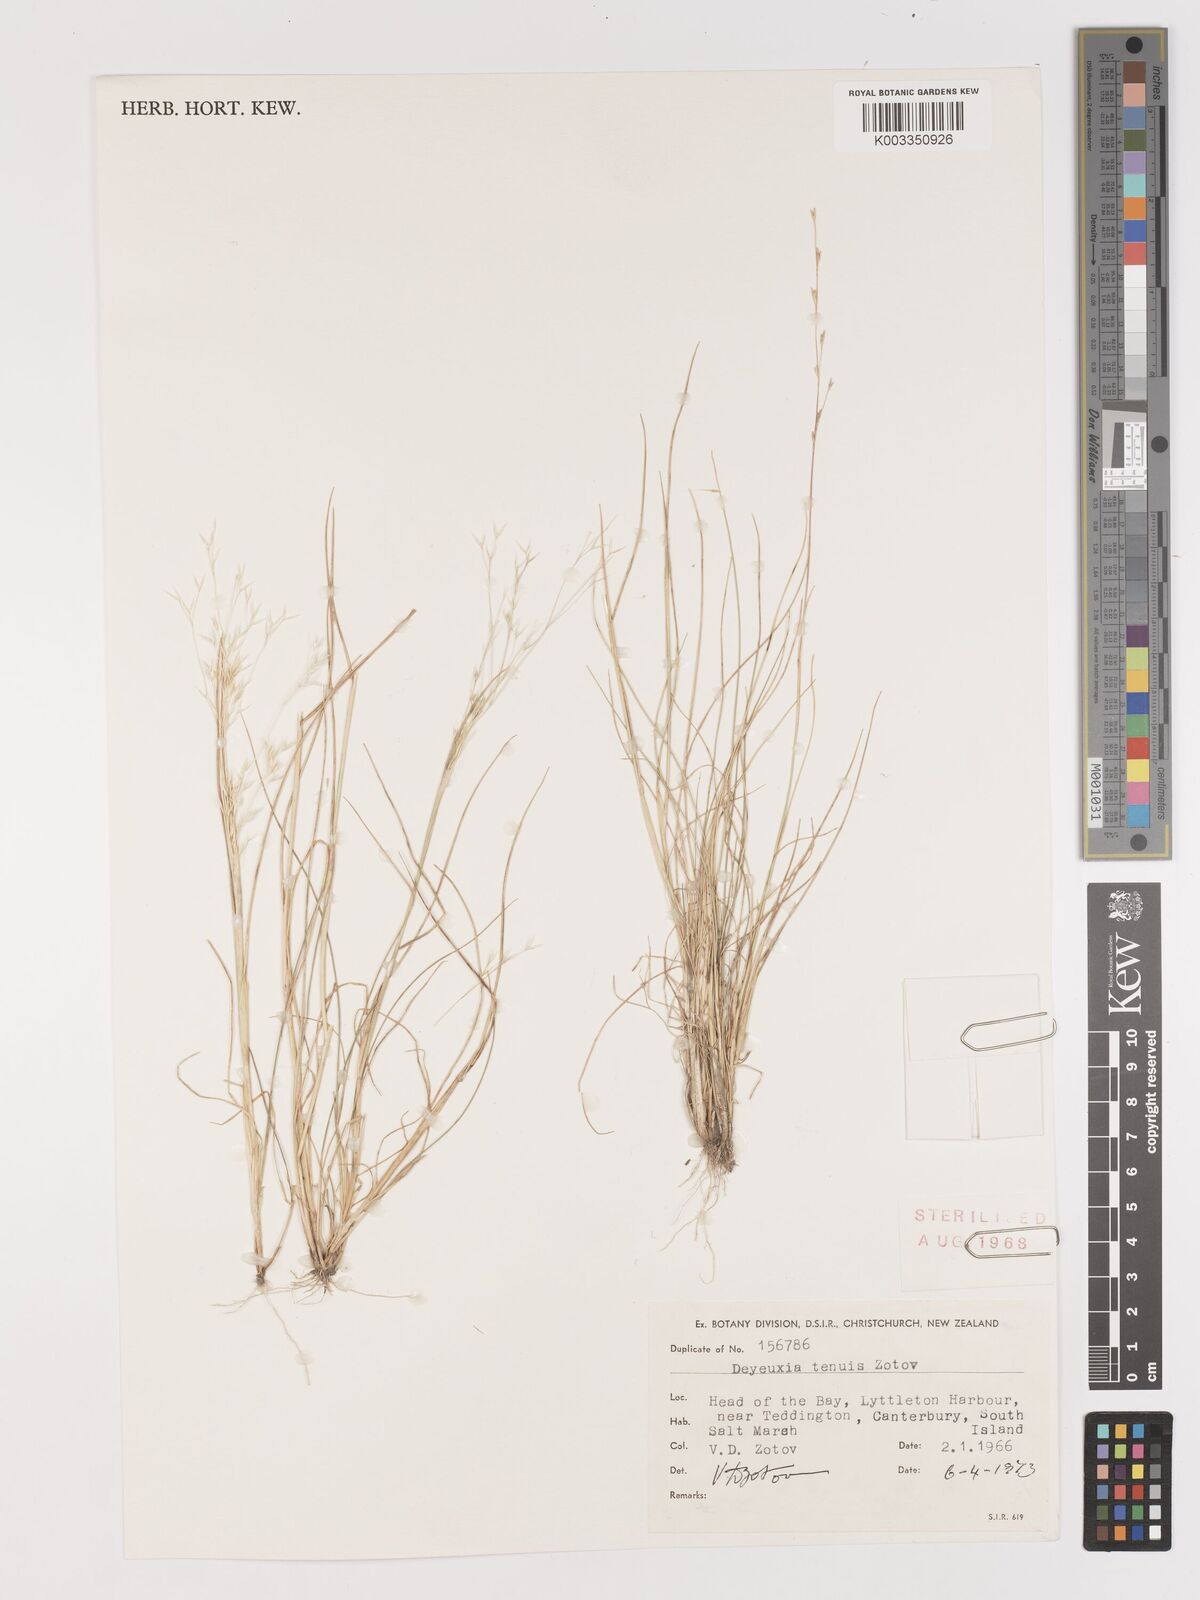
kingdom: Plantae
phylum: Tracheophyta
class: Liliopsida
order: Poales
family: Poaceae
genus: Lachnagrostis
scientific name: Lachnagrostis tenuis
